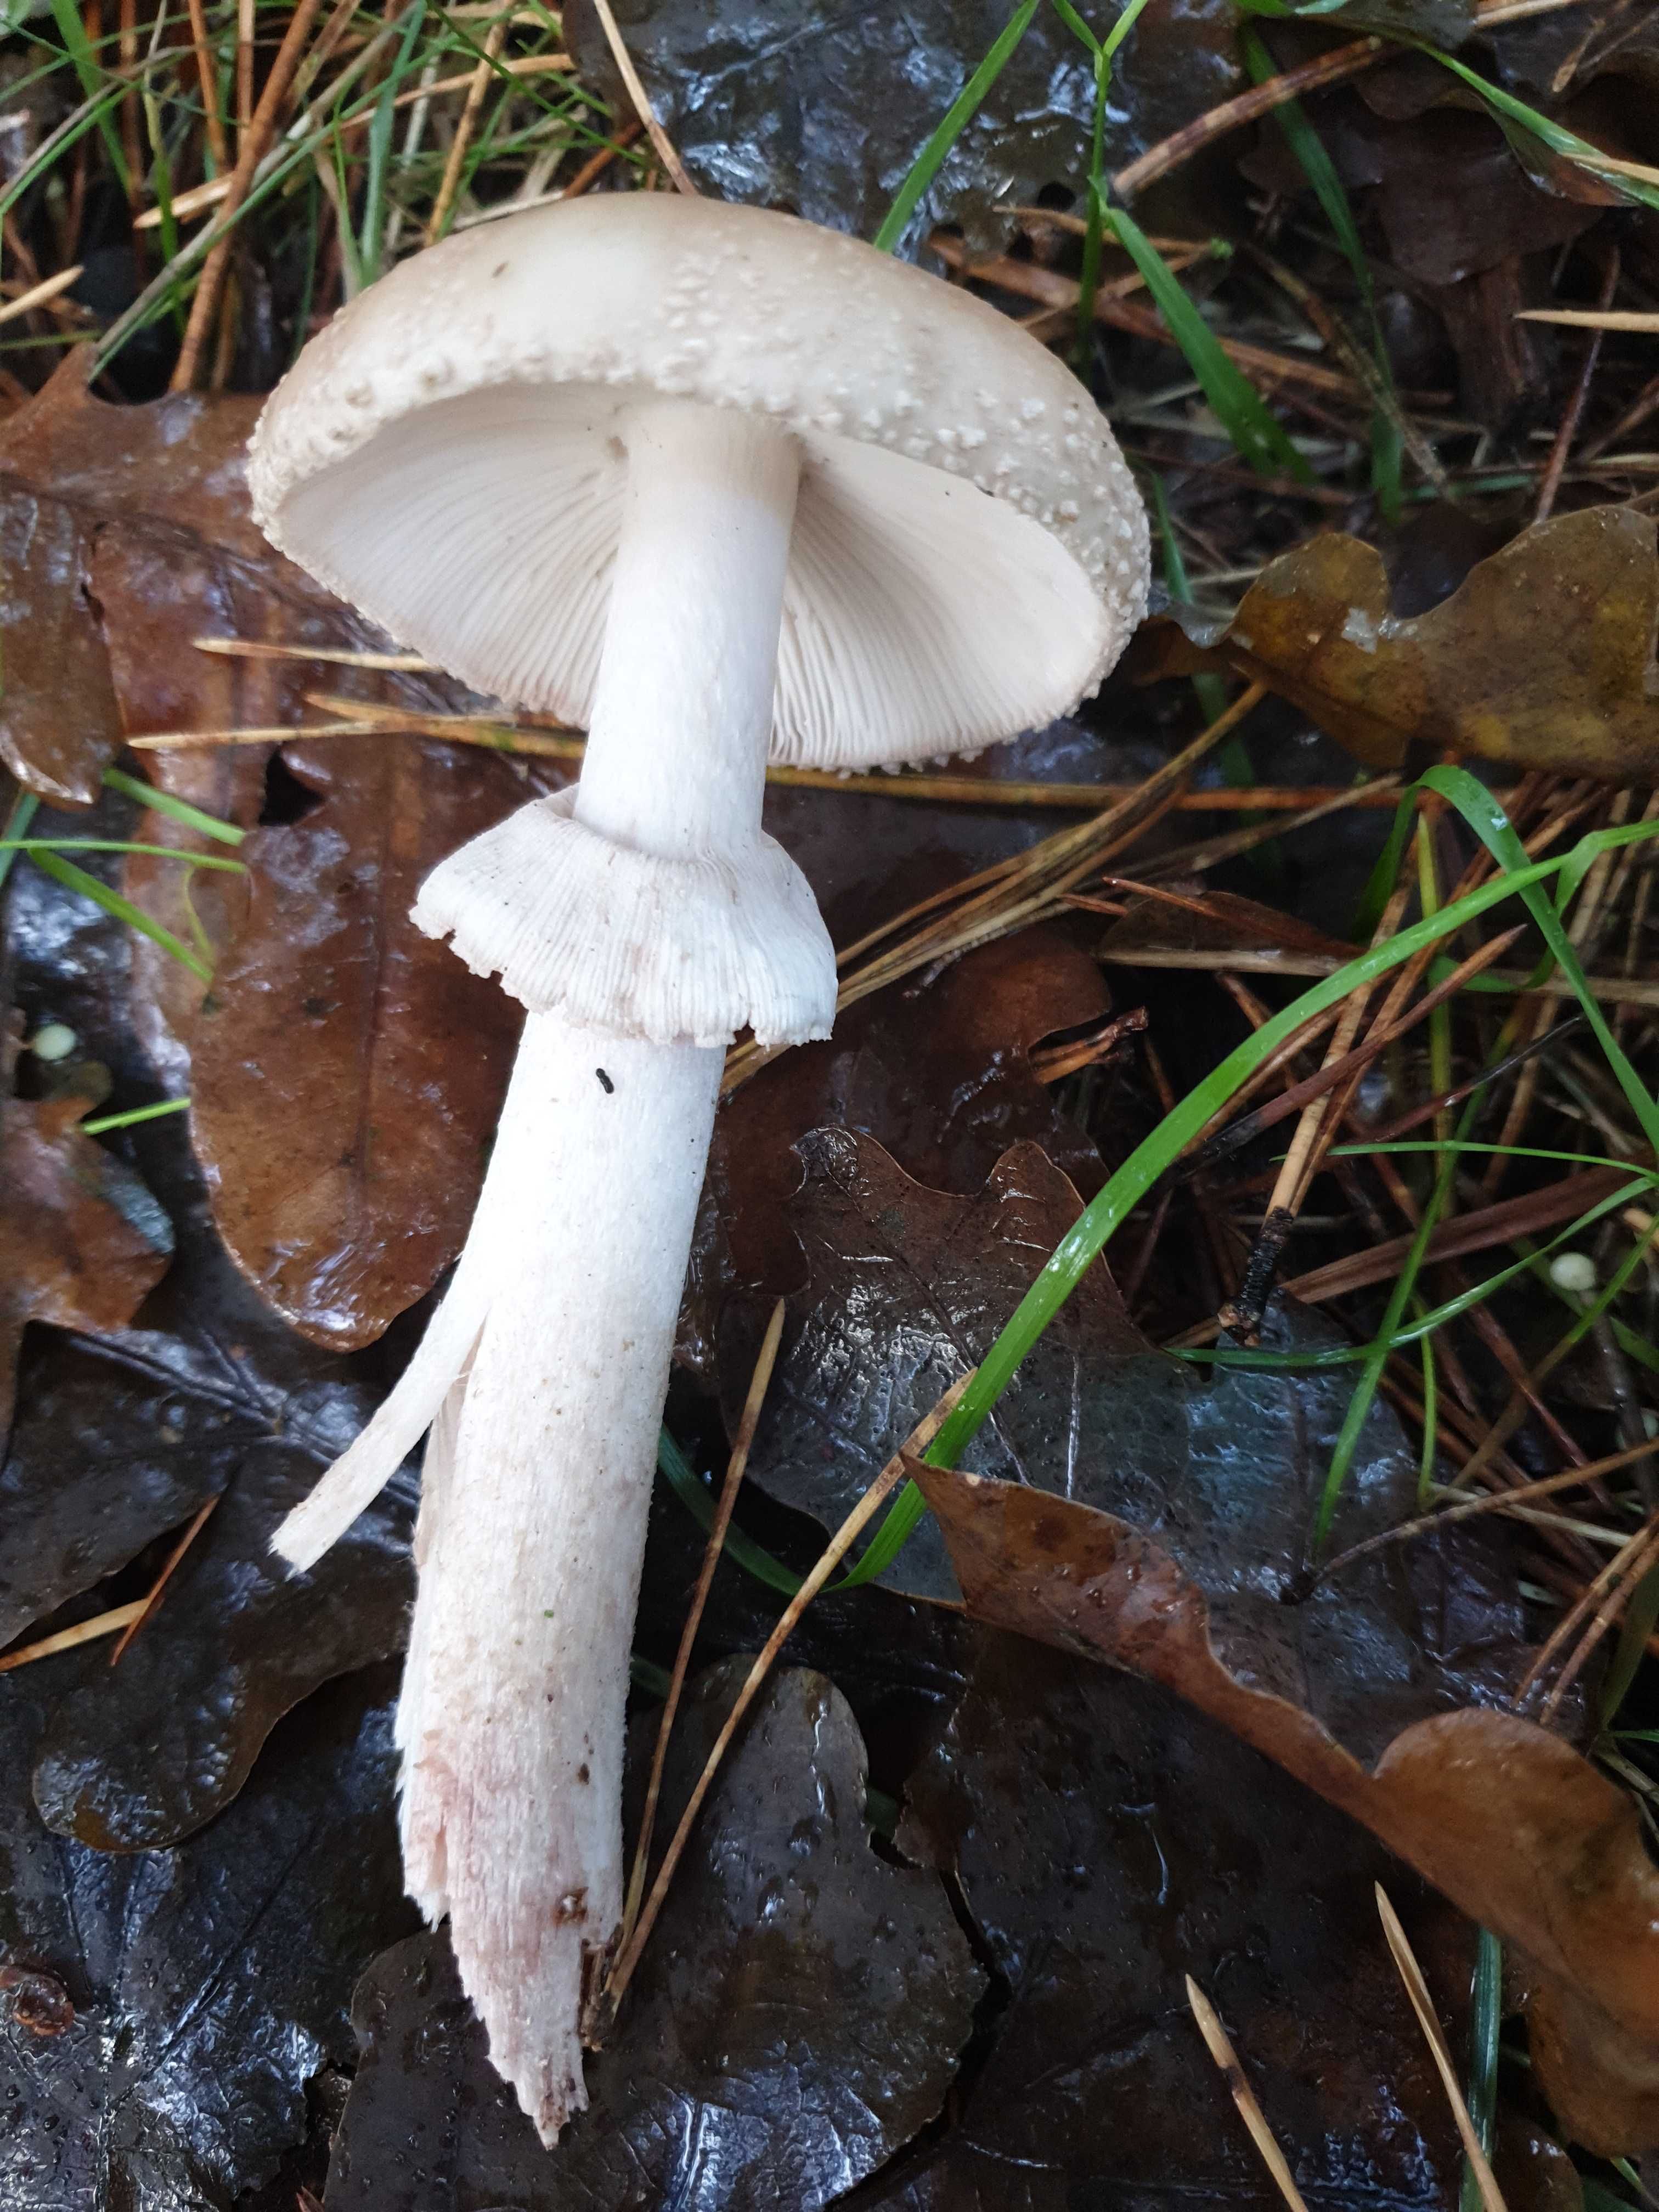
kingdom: Fungi
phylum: Basidiomycota
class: Agaricomycetes
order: Agaricales
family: Amanitaceae
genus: Amanita
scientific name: Amanita
